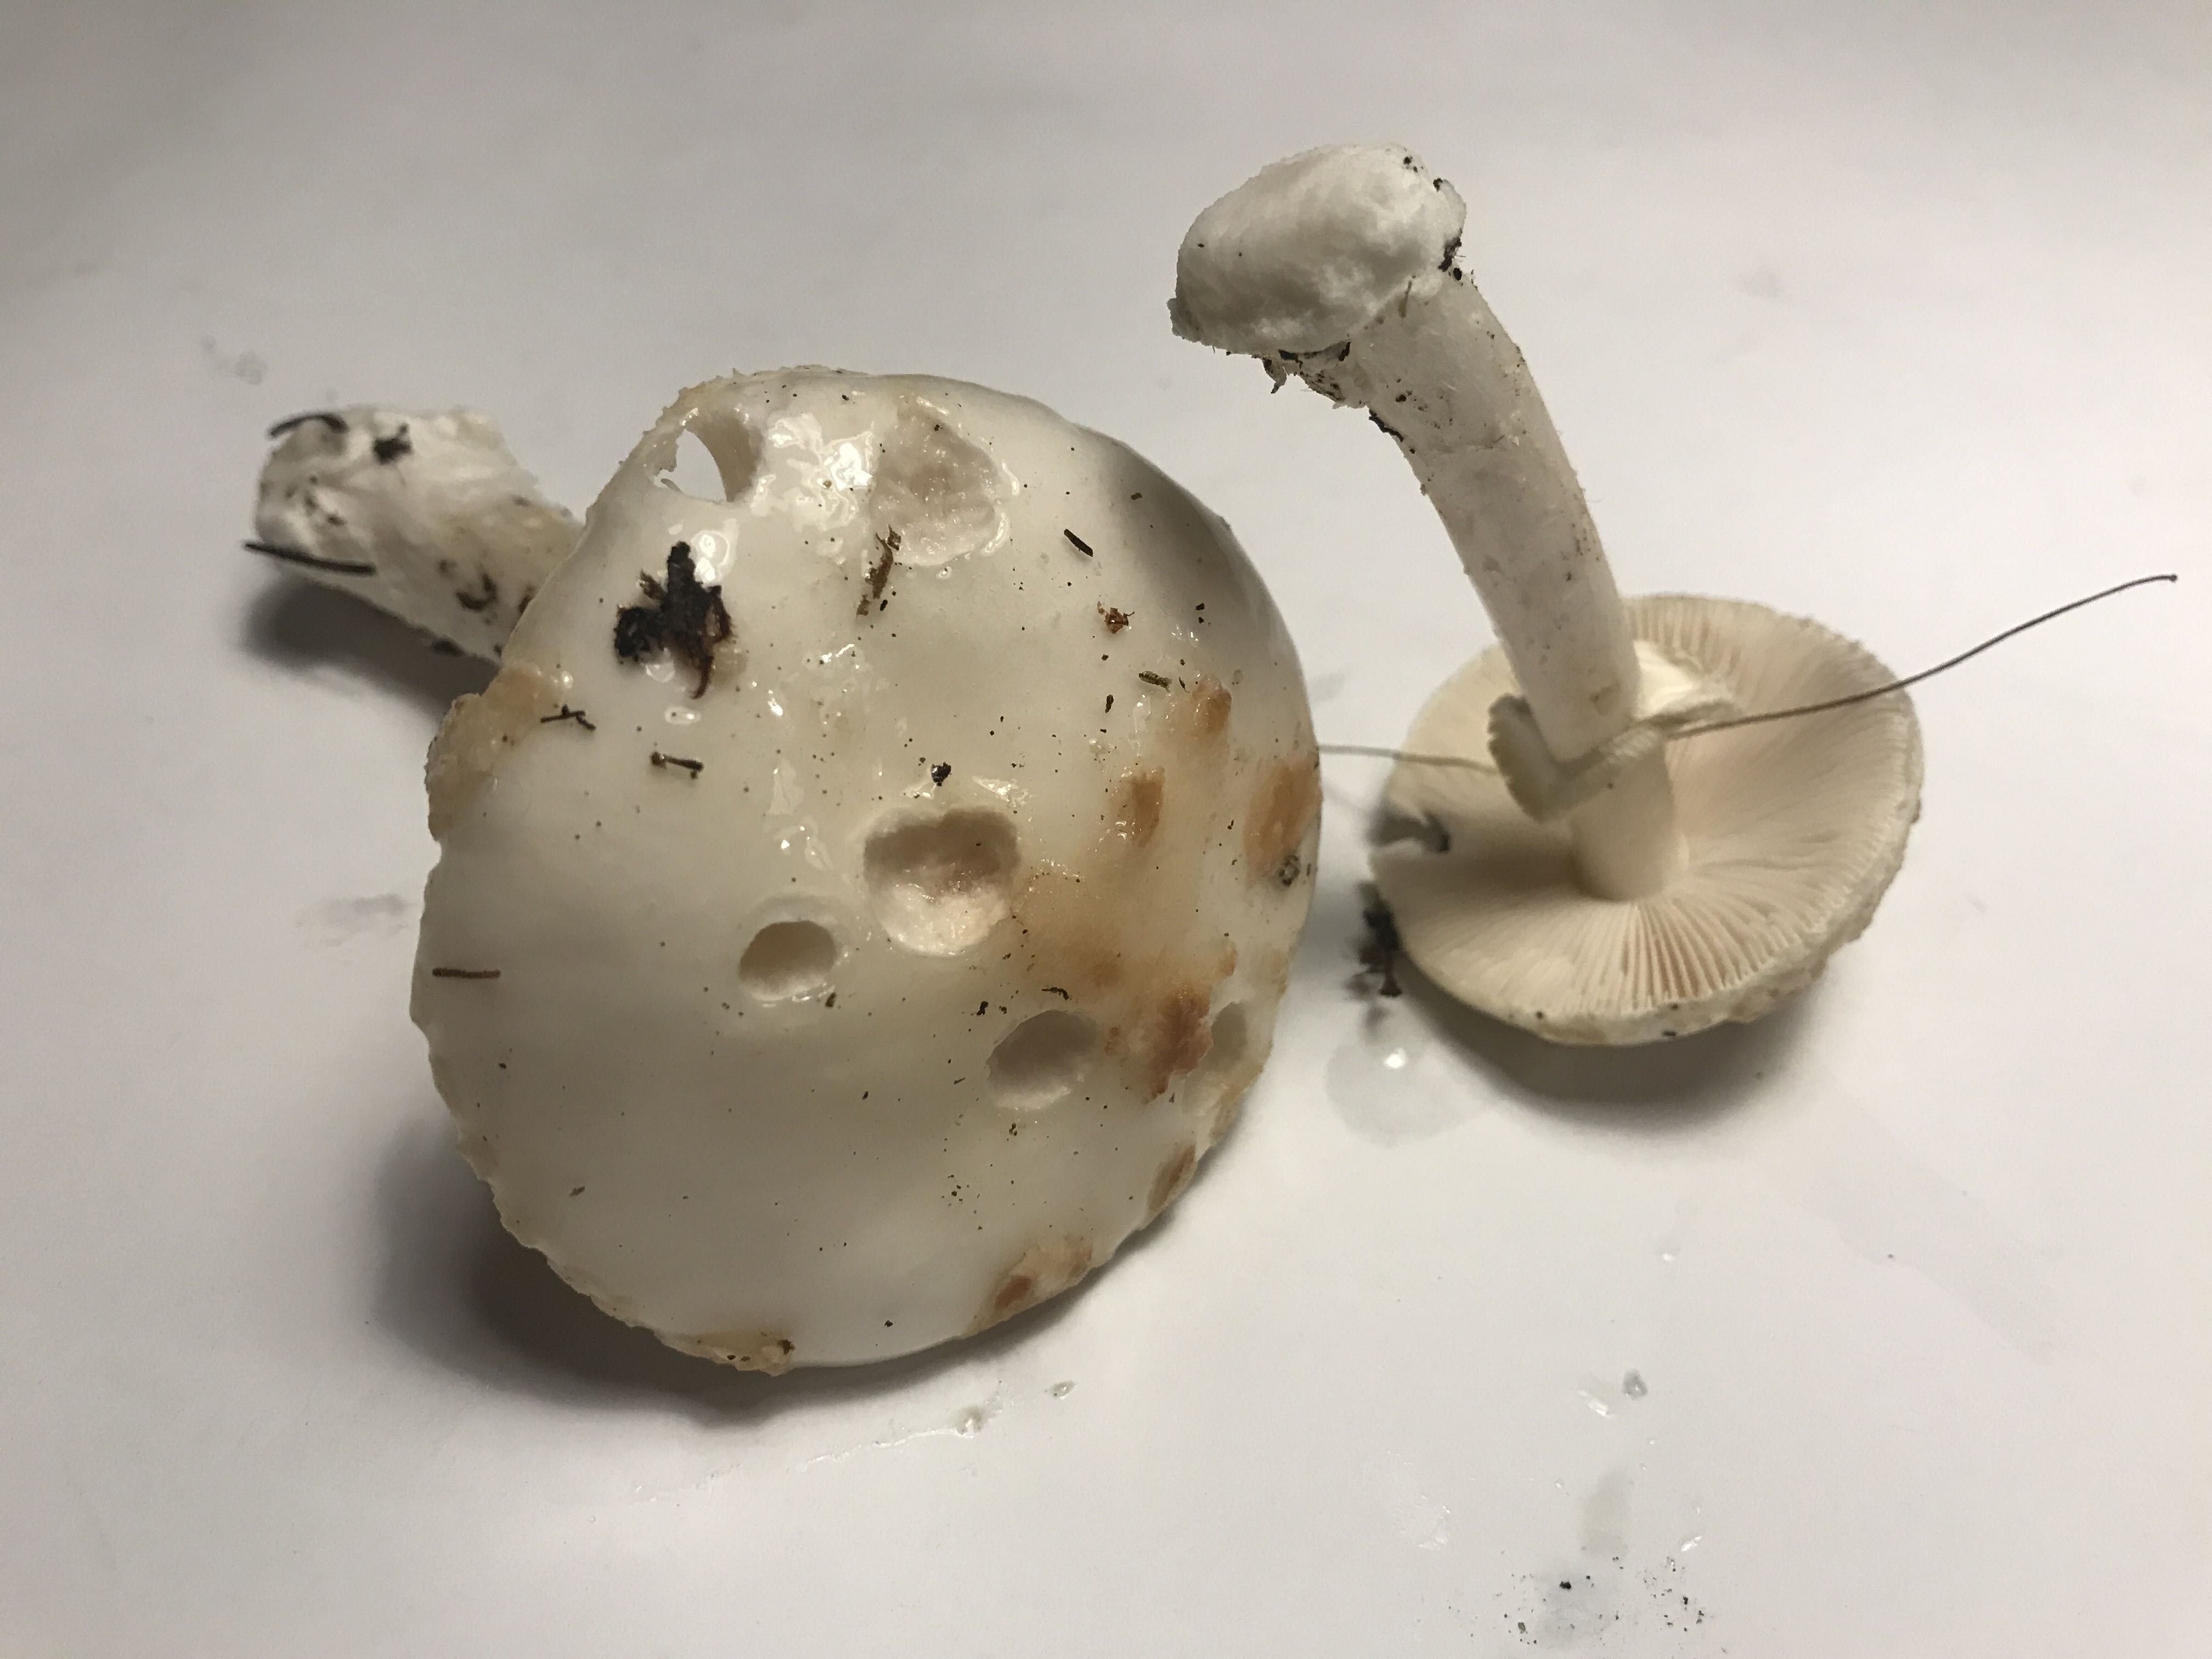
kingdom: Fungi
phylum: Basidiomycota
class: Agaricomycetes
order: Agaricales
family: Amanitaceae
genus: Amanita
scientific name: Amanita citrina
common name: False death-cap
